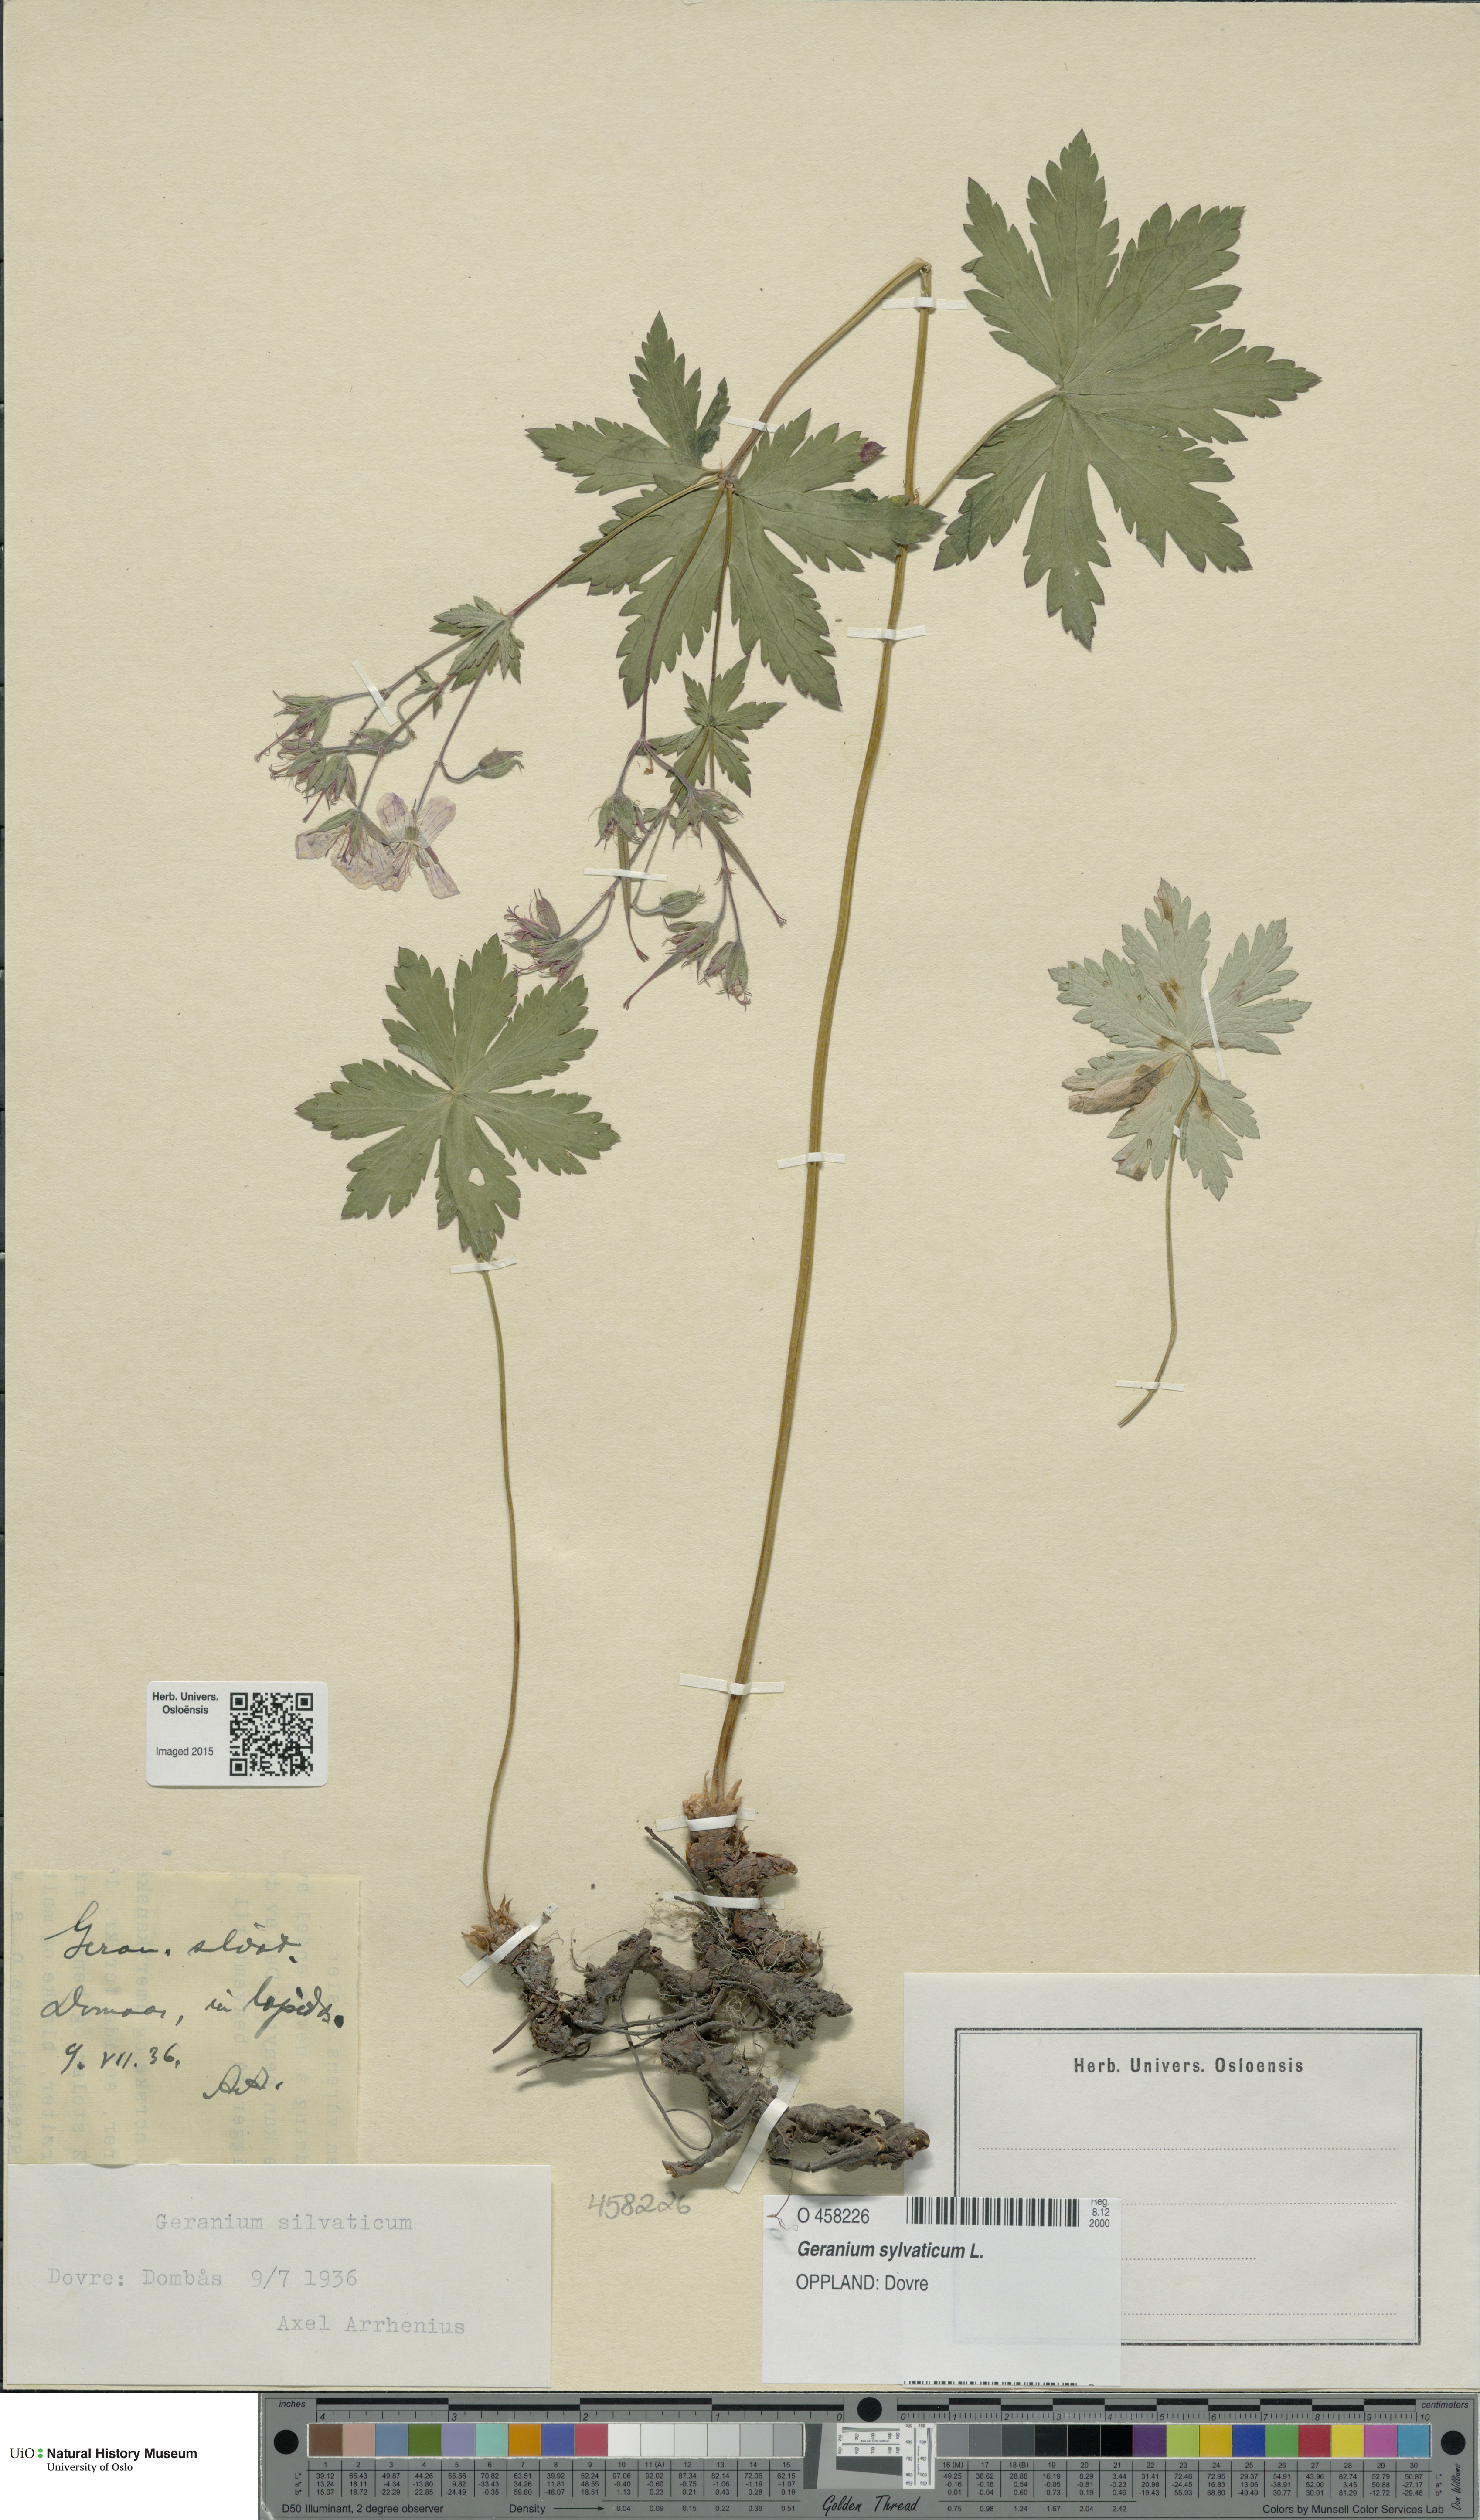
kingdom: Plantae
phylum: Tracheophyta
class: Magnoliopsida
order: Geraniales
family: Geraniaceae
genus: Geranium
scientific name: Geranium sylvaticum
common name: Wood crane's-bill
